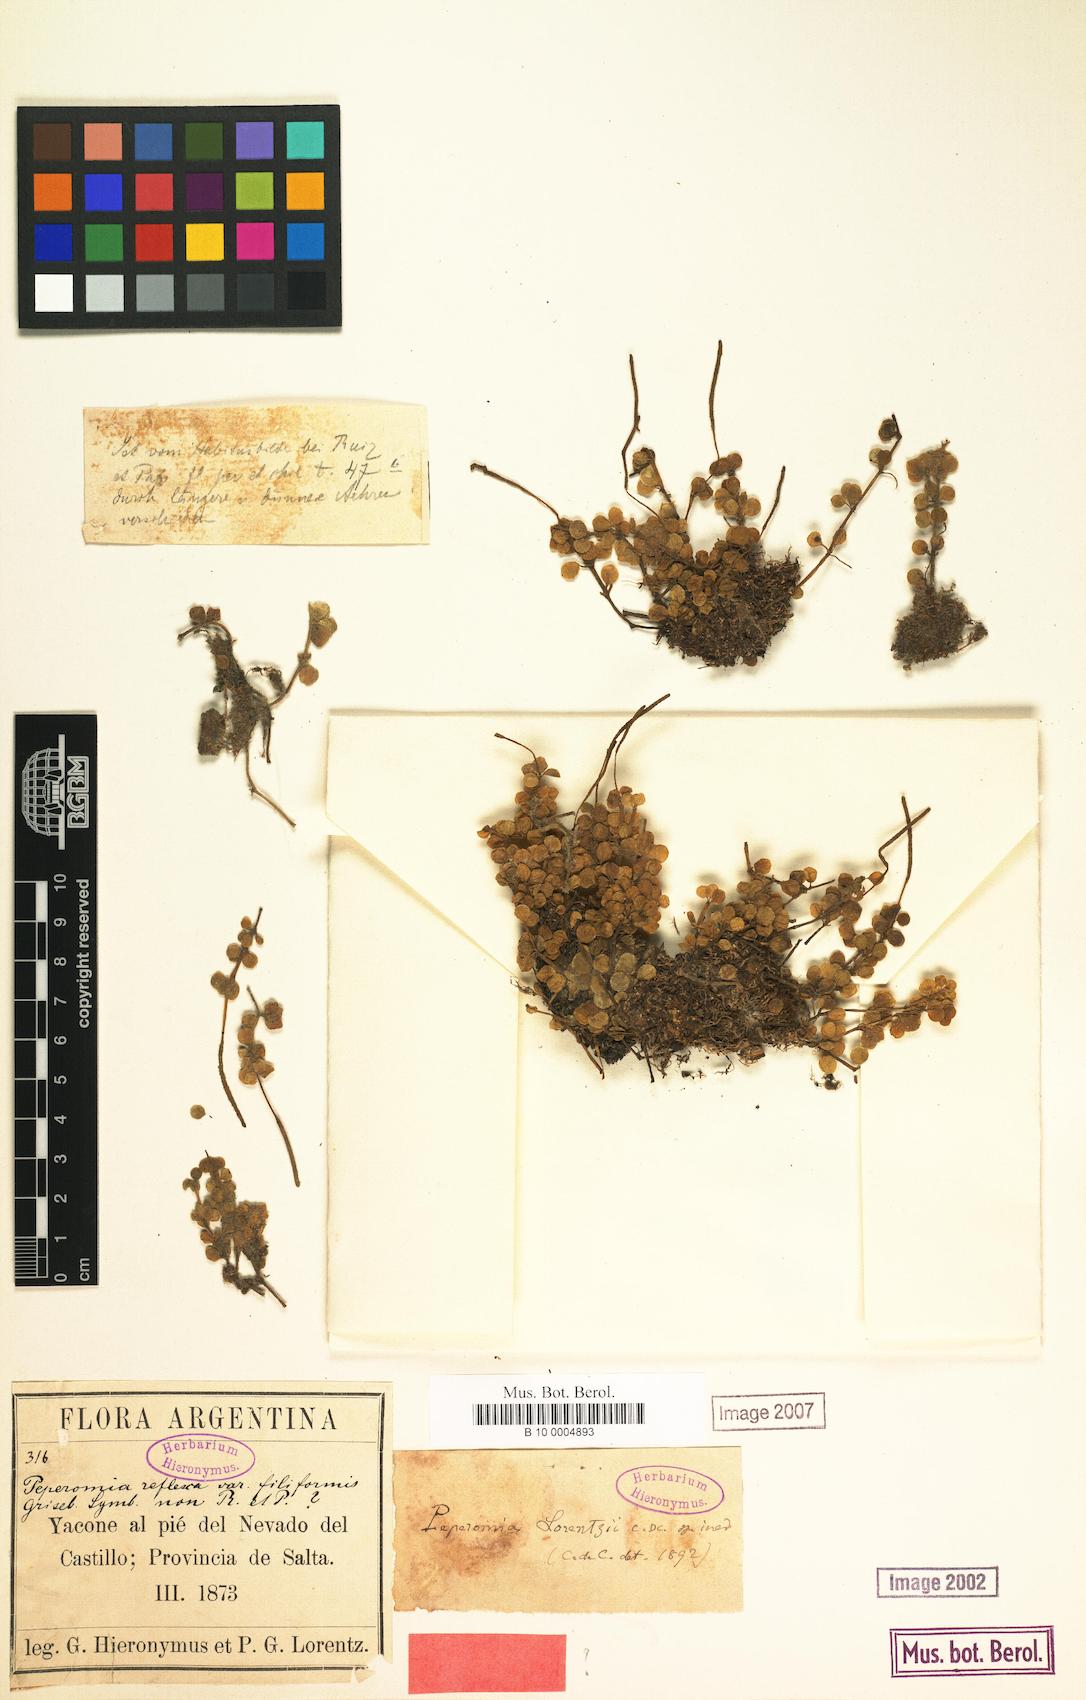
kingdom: Plantae
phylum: Tracheophyta
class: Magnoliopsida
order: Piperales
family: Piperaceae
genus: Peperomia
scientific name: Peperomia lorentzii
